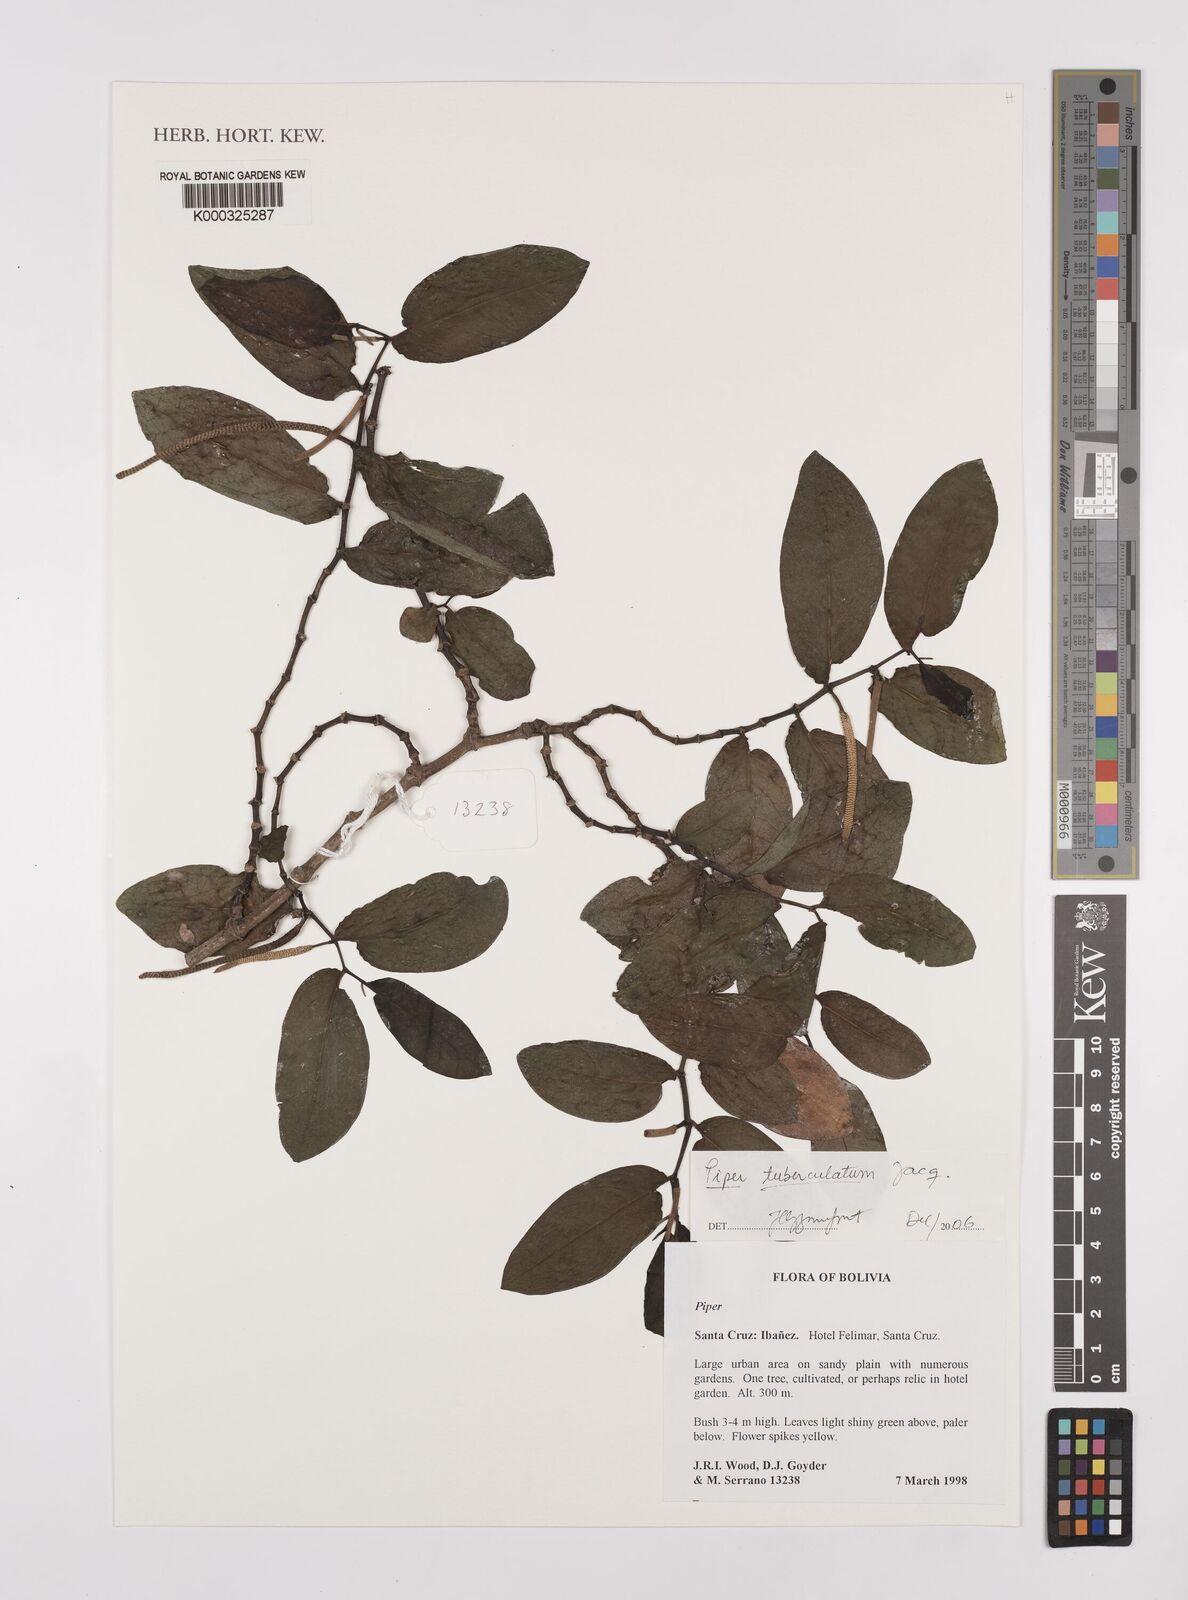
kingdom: Plantae
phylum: Tracheophyta
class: Magnoliopsida
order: Piperales
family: Piperaceae
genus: Piper
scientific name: Piper tuberculatum
